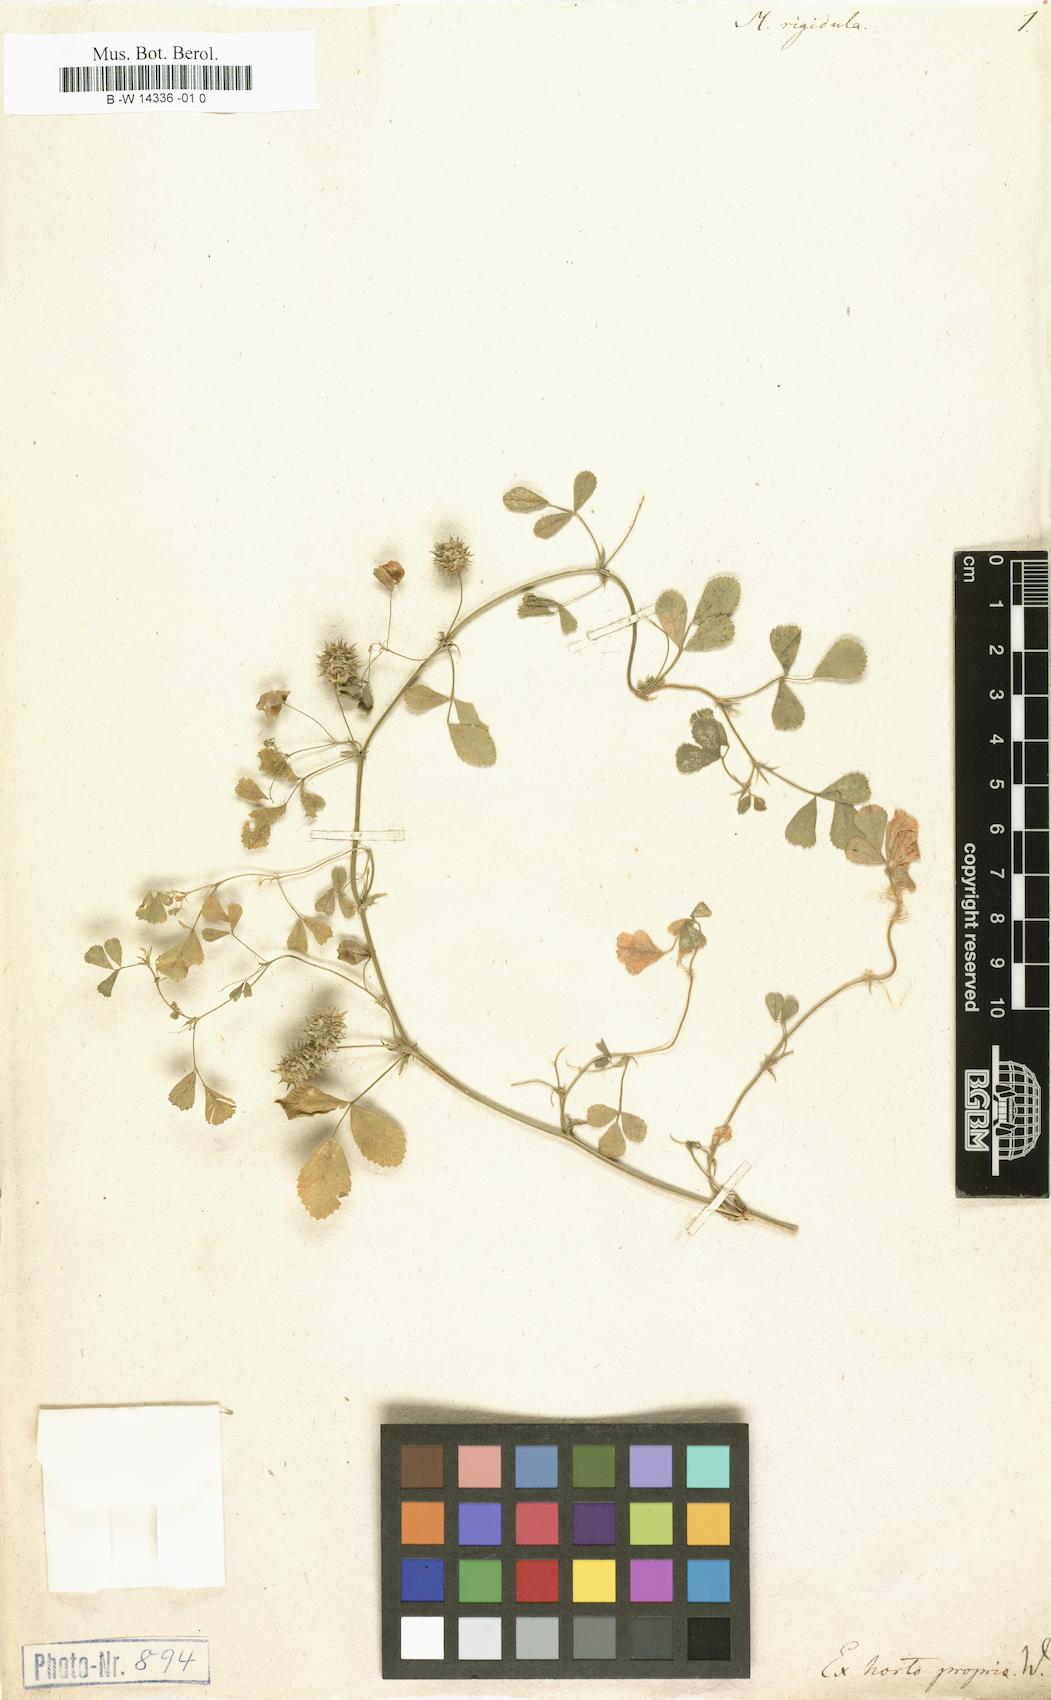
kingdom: Plantae
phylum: Tracheophyta
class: Magnoliopsida
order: Fabales
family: Fabaceae
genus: Medicago
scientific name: Medicago rigidula
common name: Tifton medic
